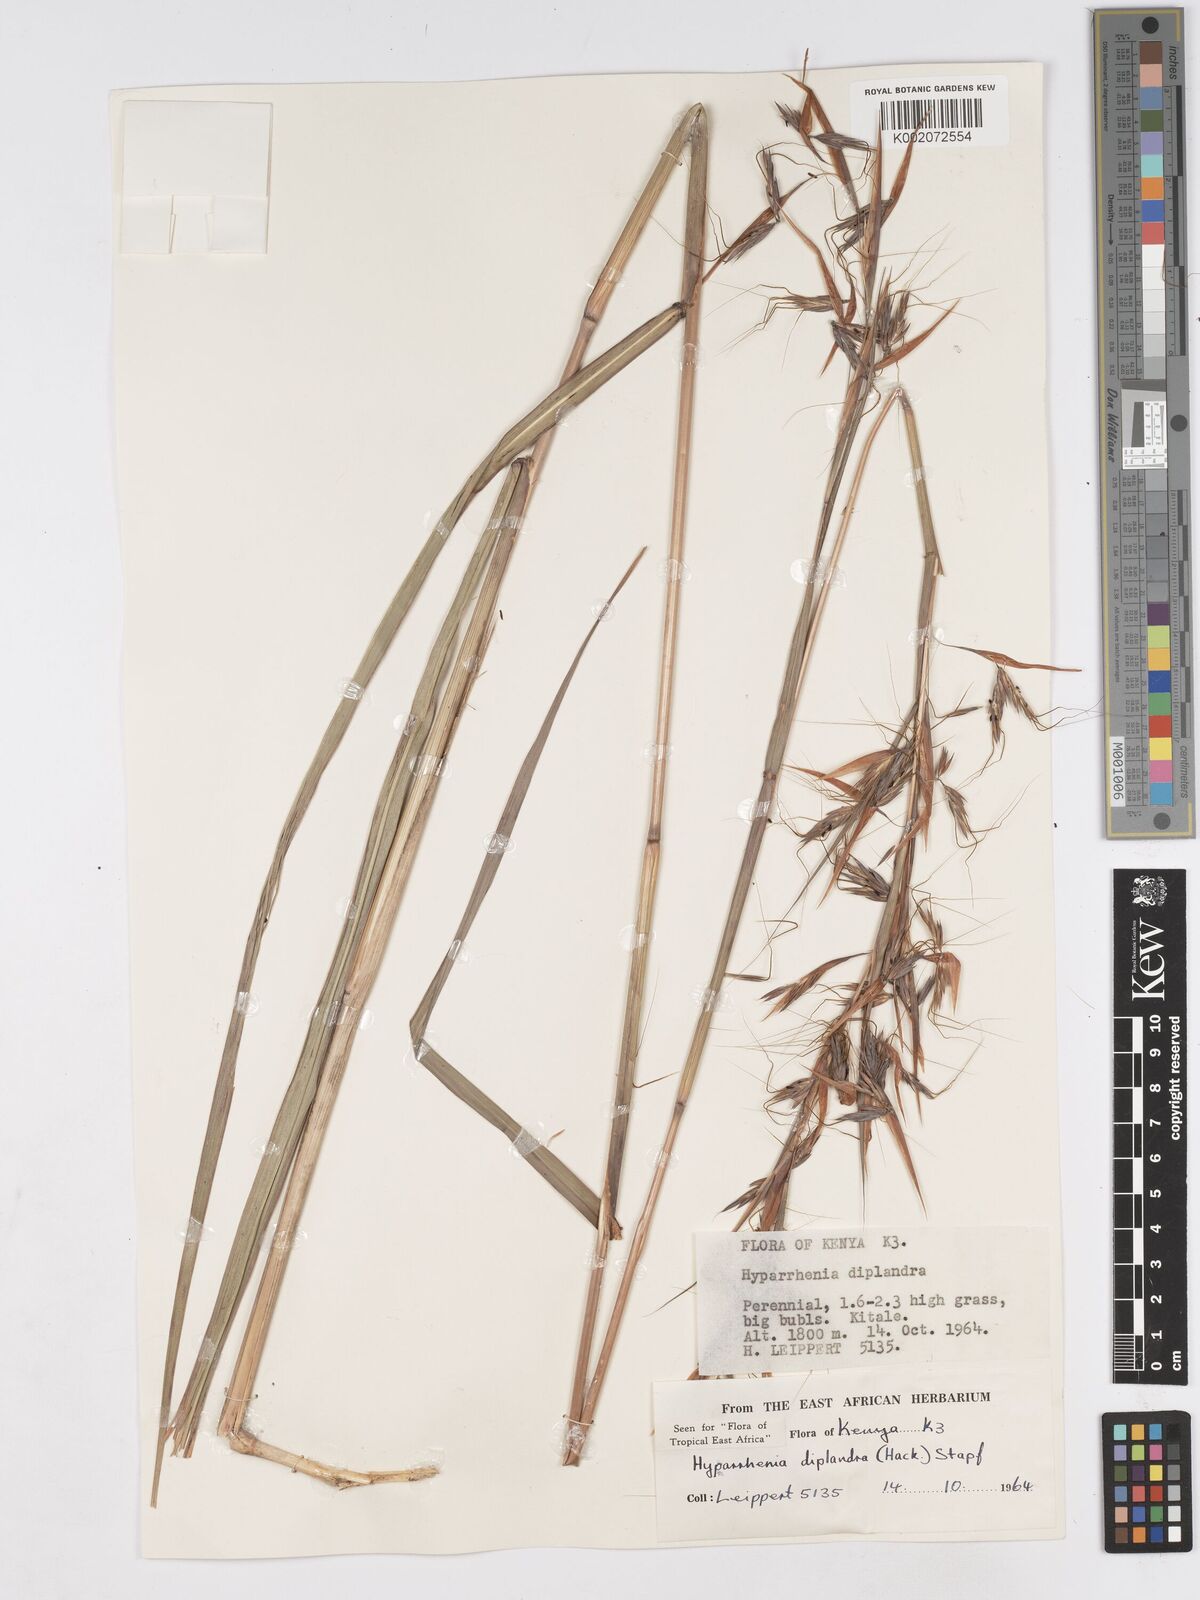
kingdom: Plantae
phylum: Tracheophyta
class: Liliopsida
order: Poales
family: Poaceae
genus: Hyparrhenia
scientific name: Hyparrhenia diplandra
